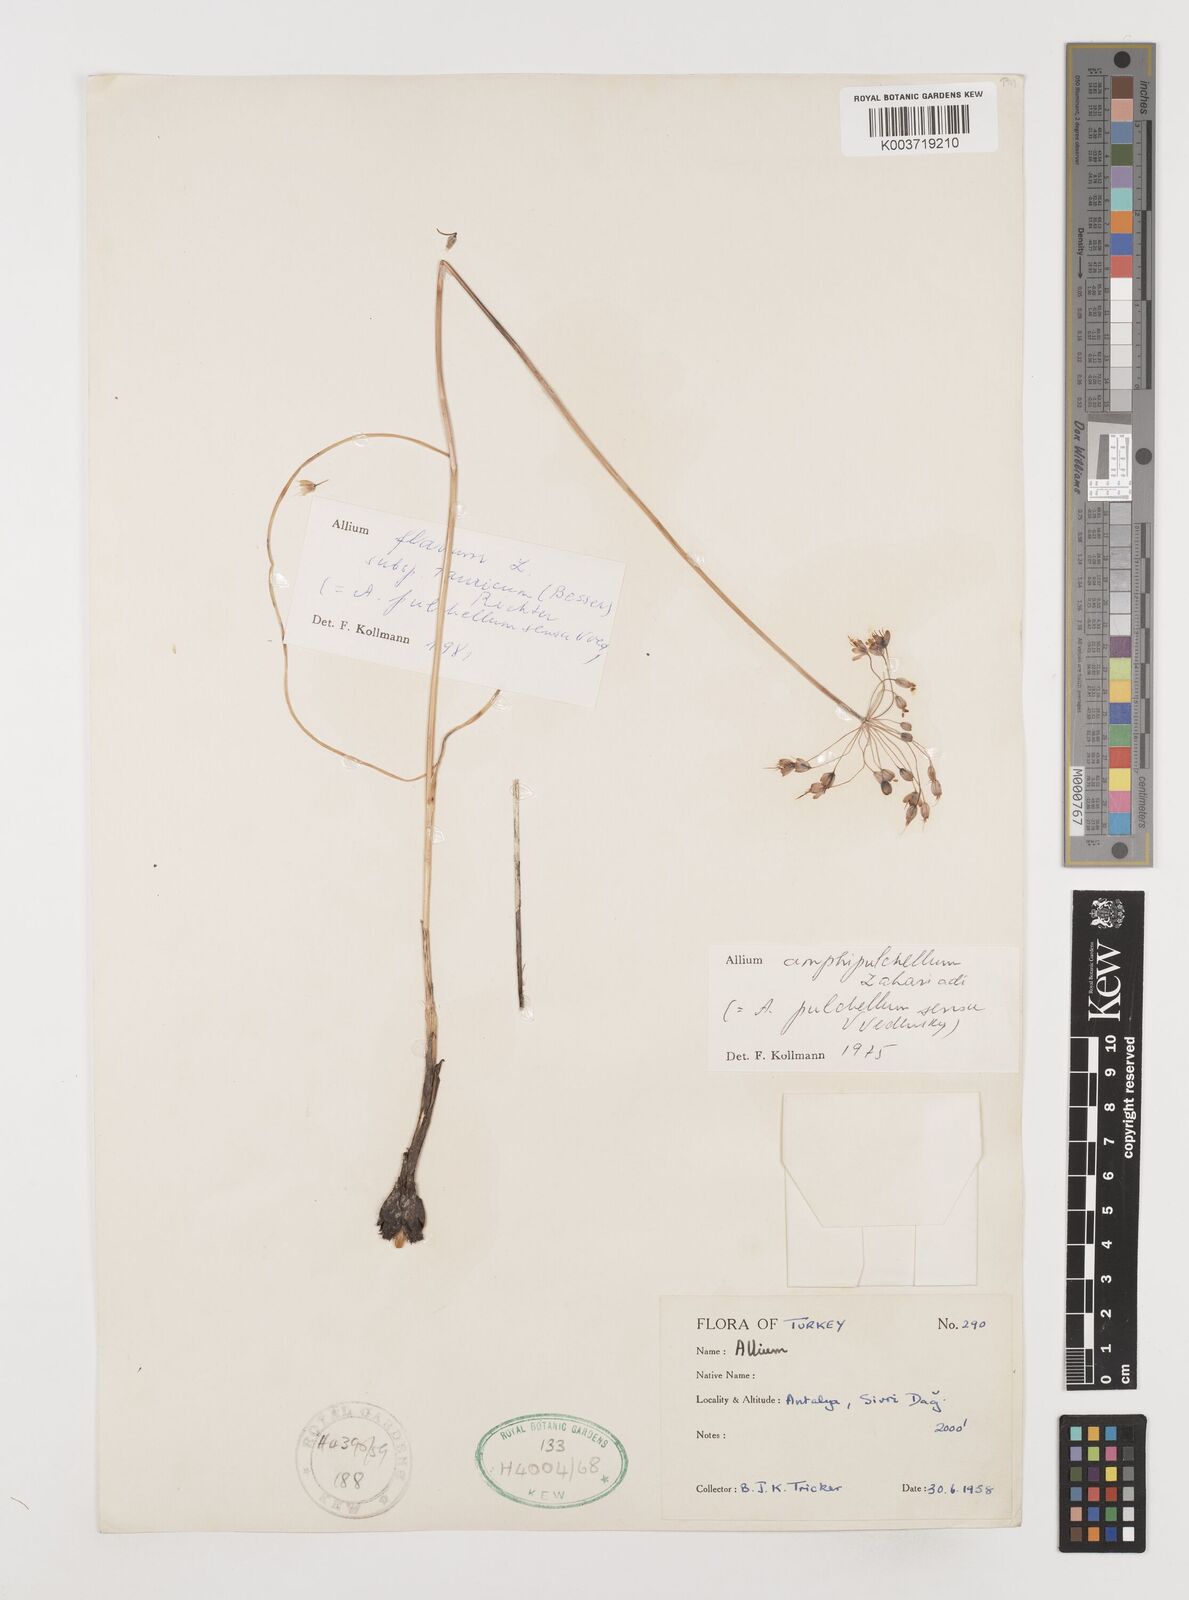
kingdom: Plantae
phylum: Tracheophyta
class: Liliopsida
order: Asparagales
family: Amaryllidaceae
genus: Allium
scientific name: Allium flavum
